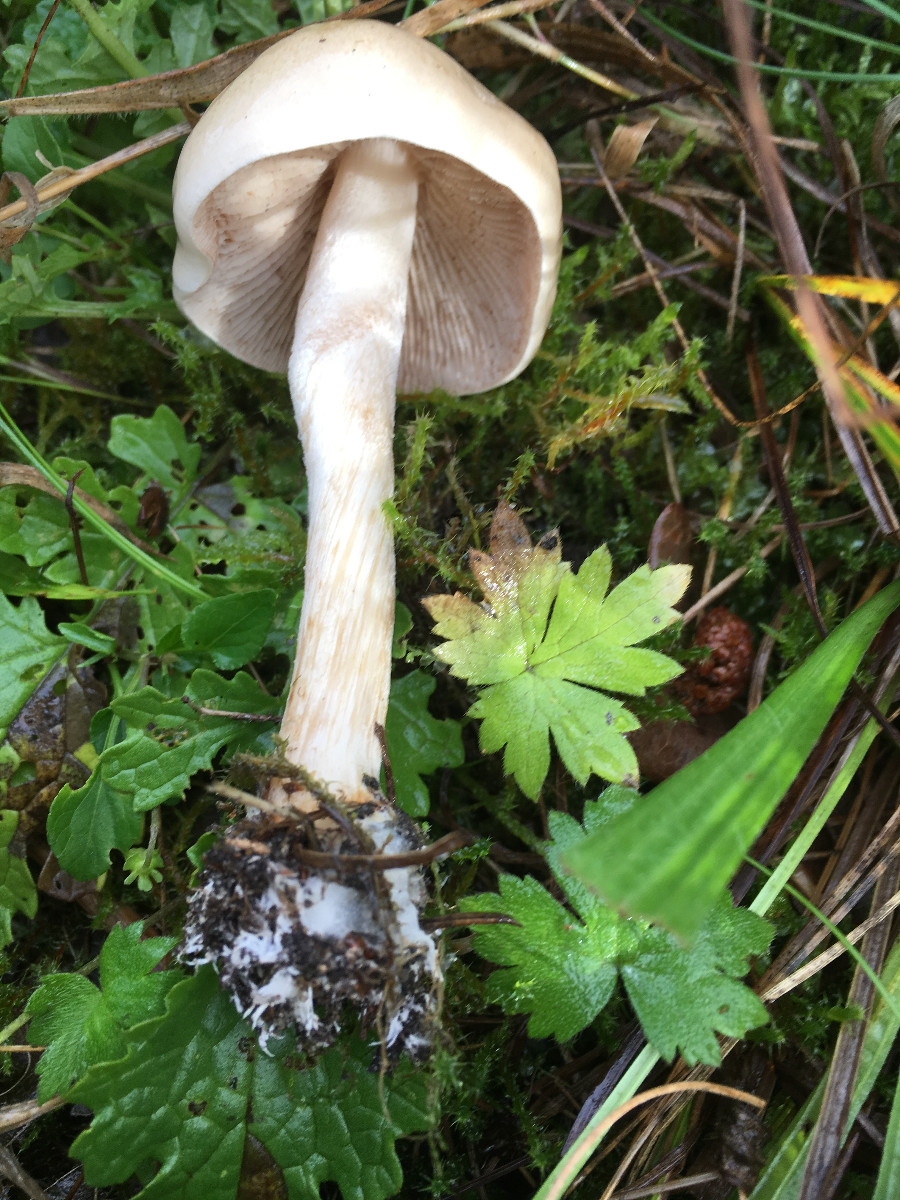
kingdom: Fungi
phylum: Basidiomycota
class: Agaricomycetes
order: Agaricales
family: Hymenogastraceae
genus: Hebeloma
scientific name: Hebeloma
